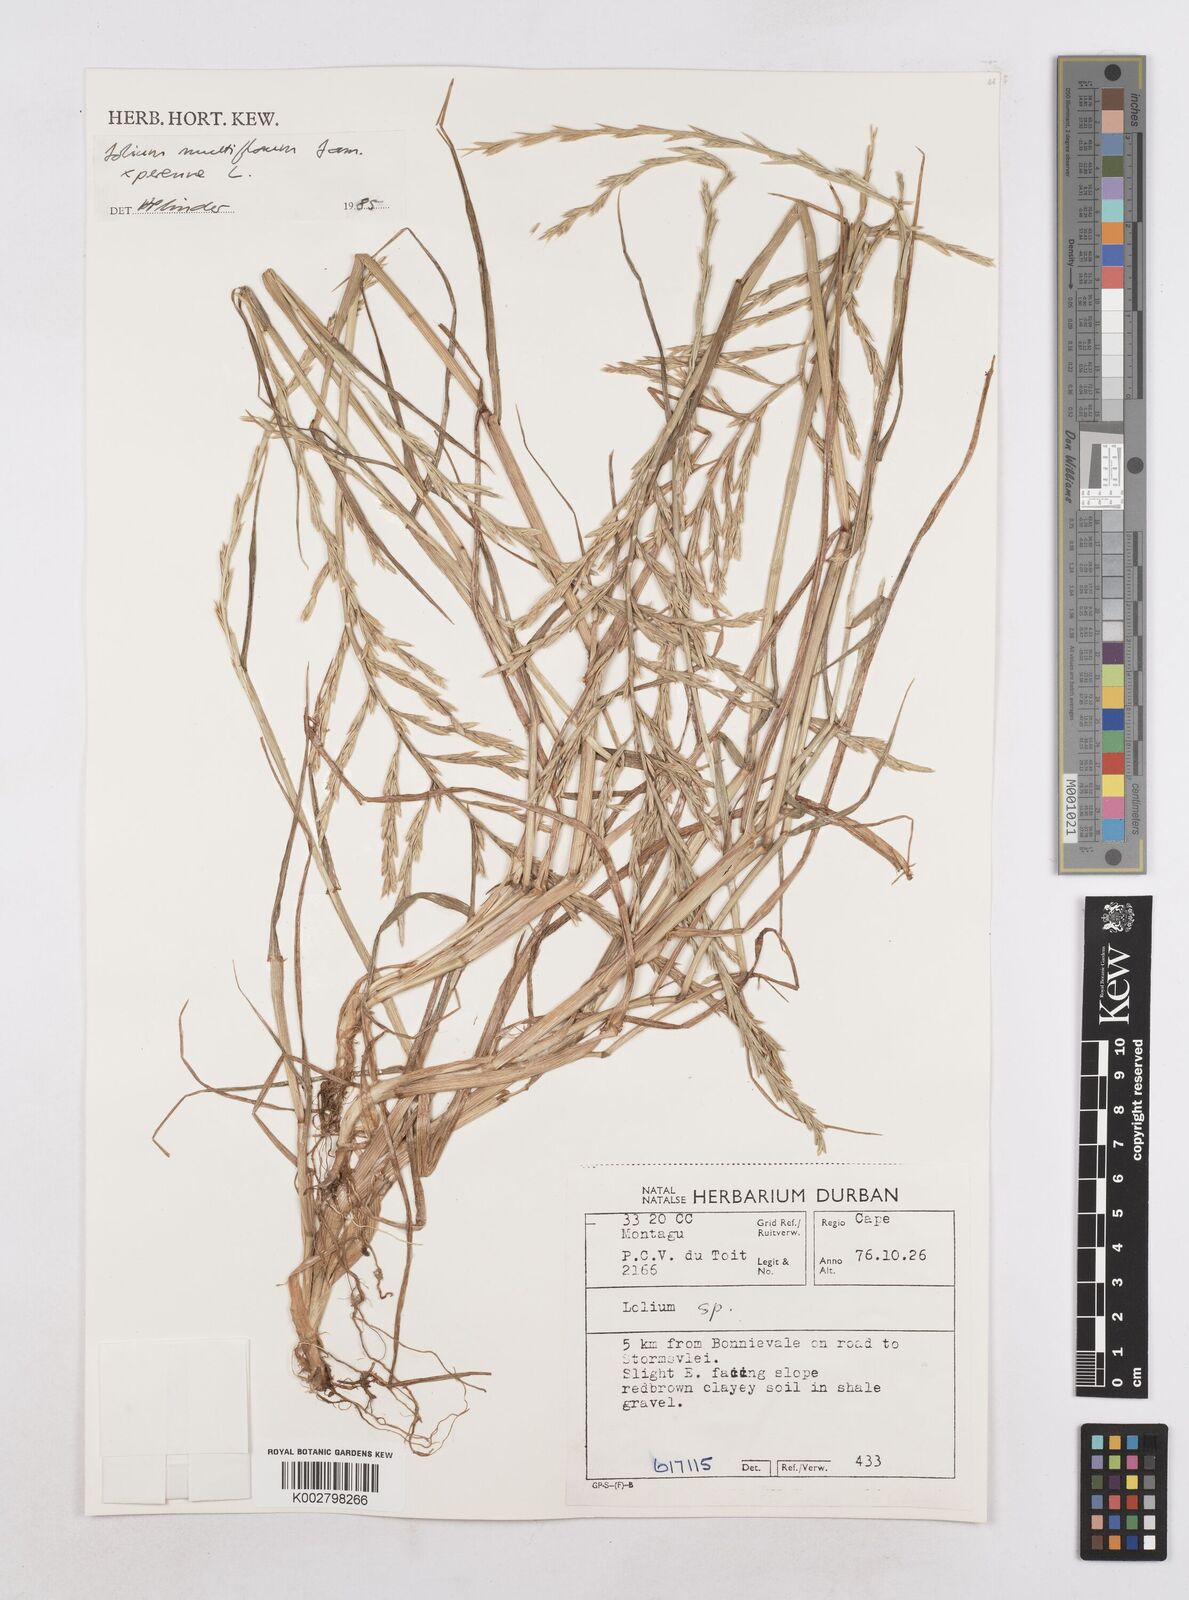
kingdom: Plantae
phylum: Tracheophyta
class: Liliopsida
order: Poales
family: Poaceae
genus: Lolium
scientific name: Lolium perenne
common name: Perennial ryegrass
